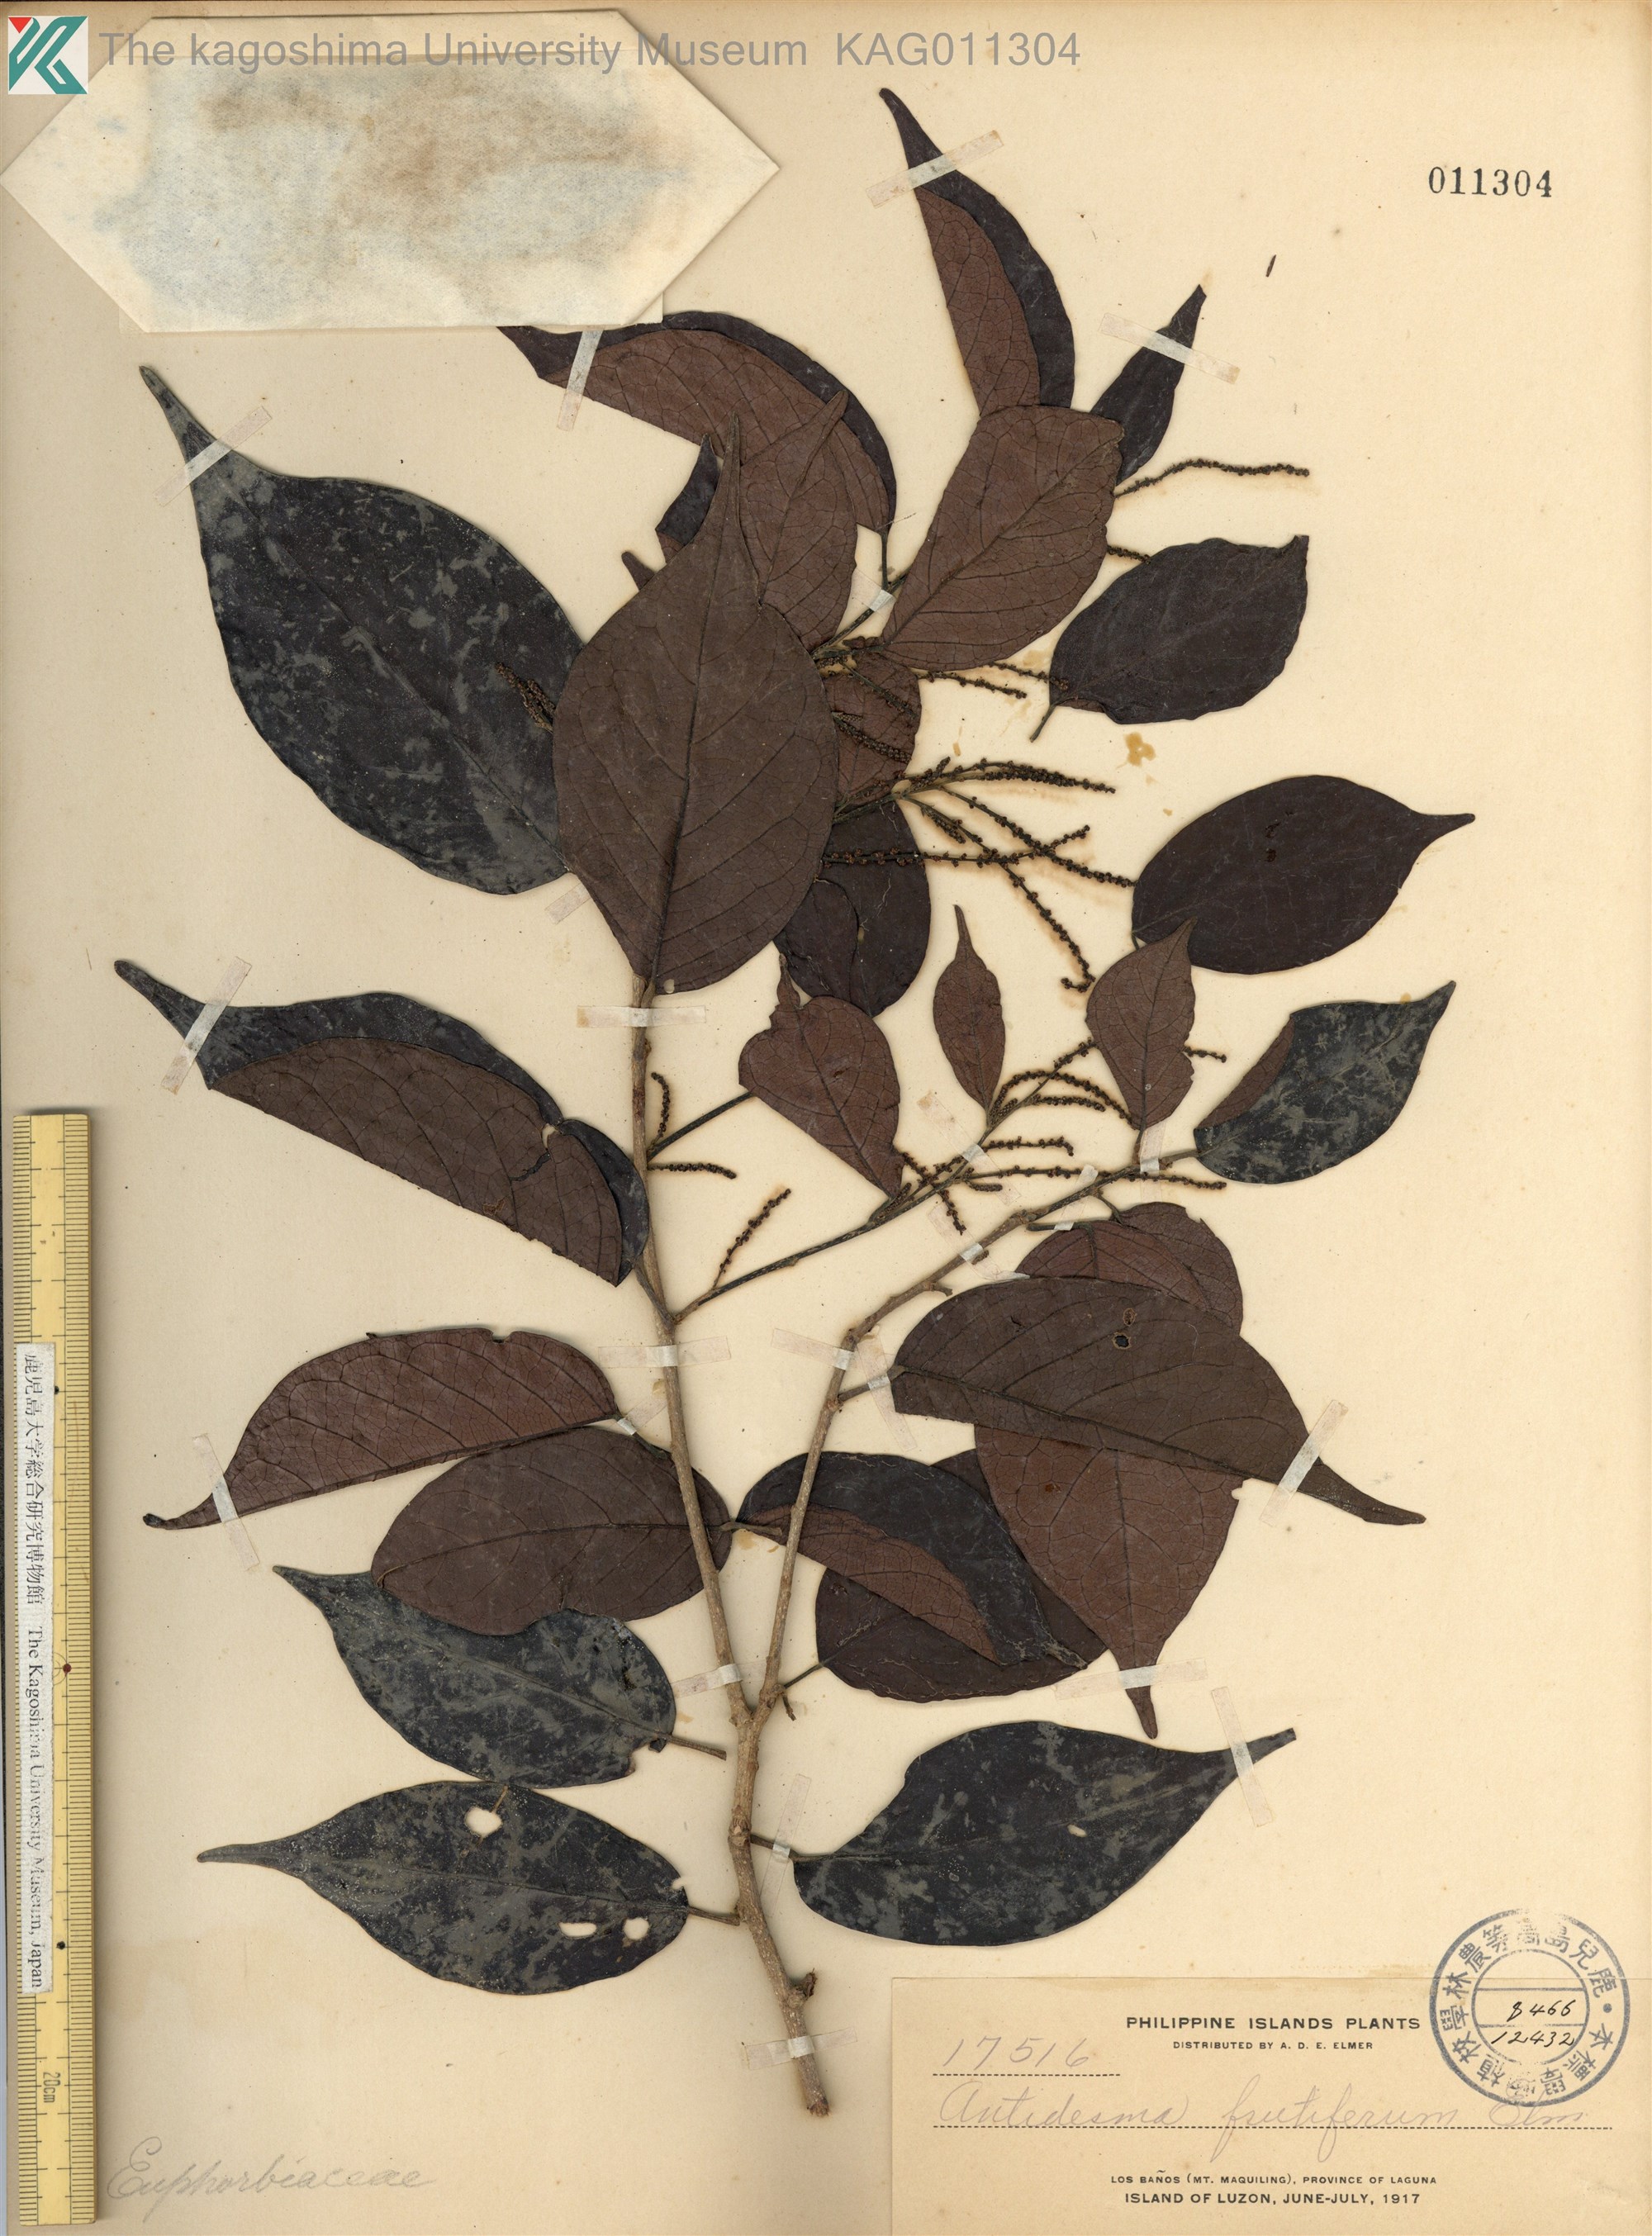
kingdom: Plantae
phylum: Tracheophyta
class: Magnoliopsida
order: Malpighiales
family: Phyllanthaceae
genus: Antidesma
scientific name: Antidesma microcarpum
